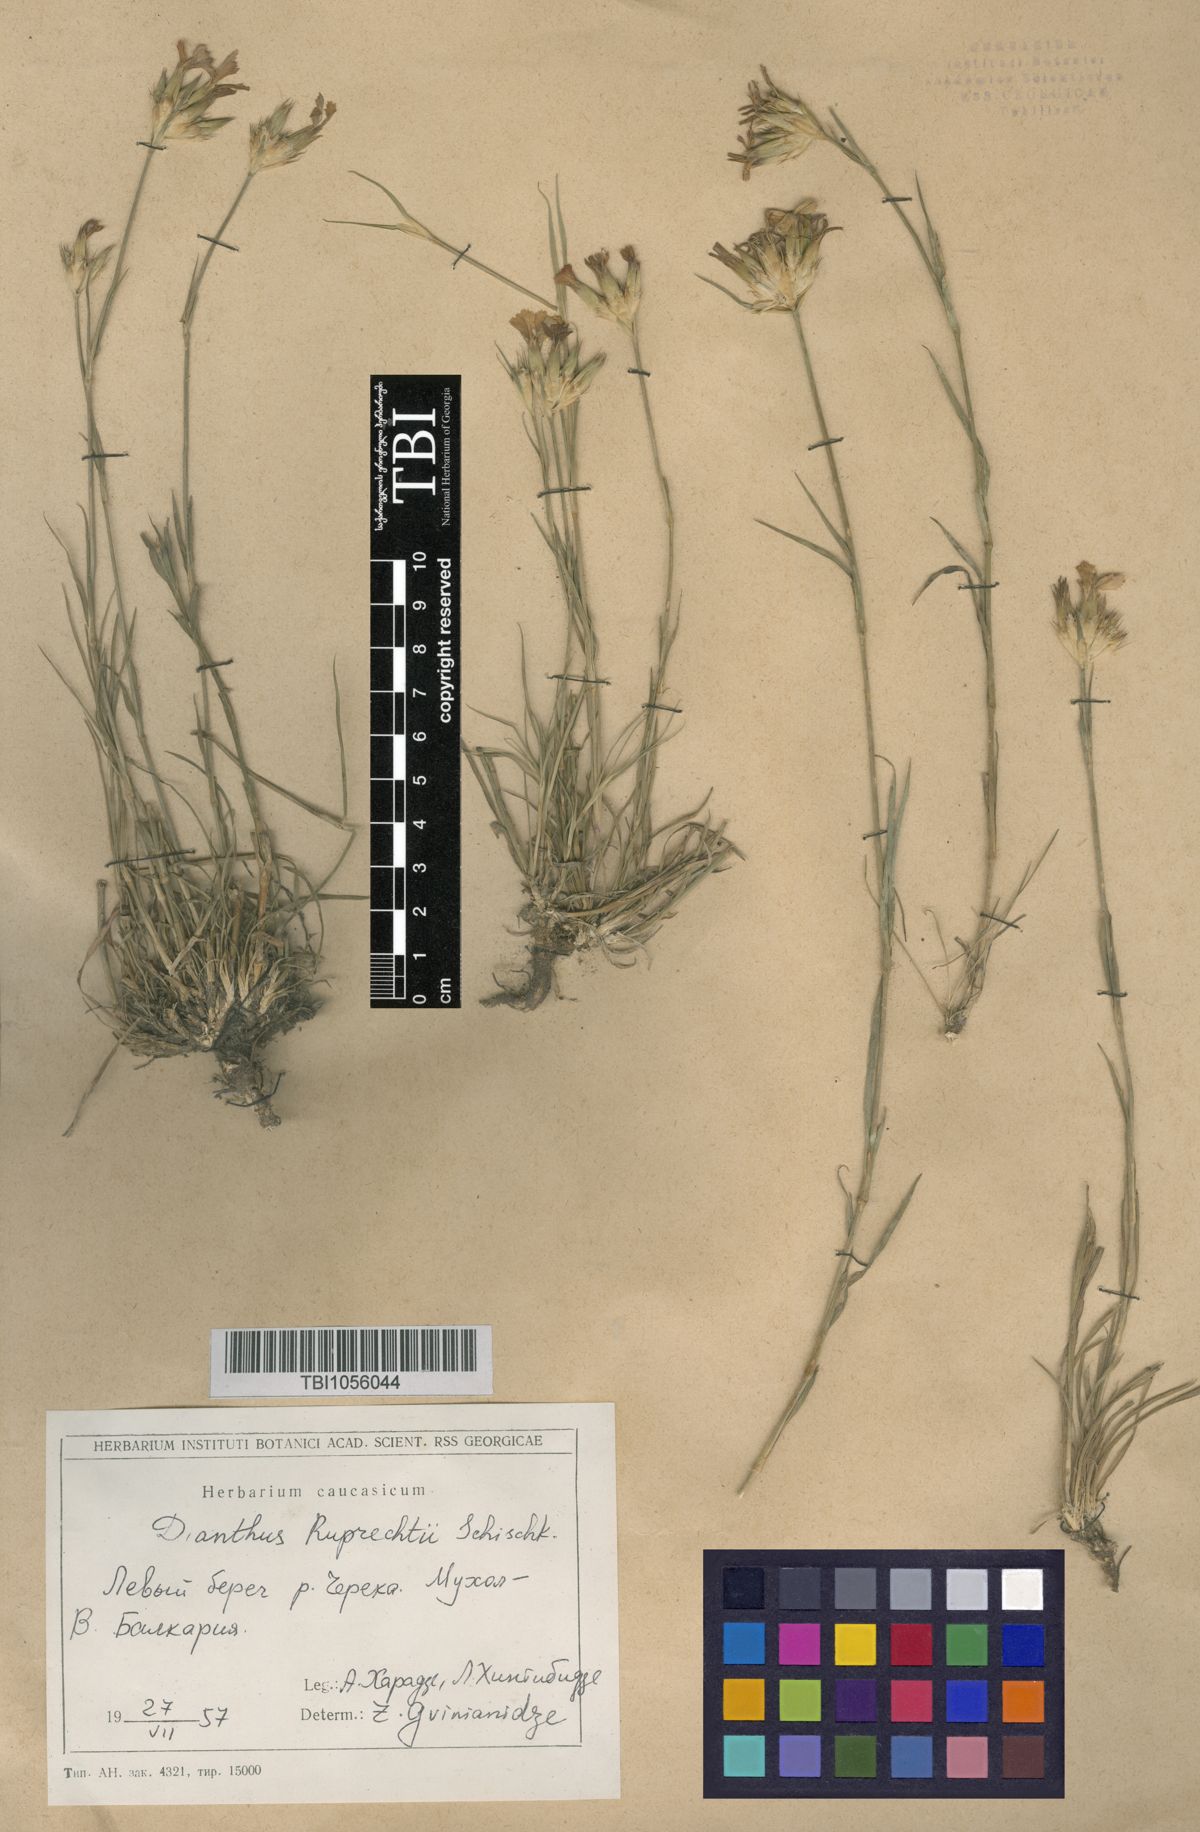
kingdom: Plantae
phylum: Tracheophyta
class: Magnoliopsida
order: Caryophyllales
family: Caryophyllaceae
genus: Dianthus
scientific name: Dianthus ruprechtii
